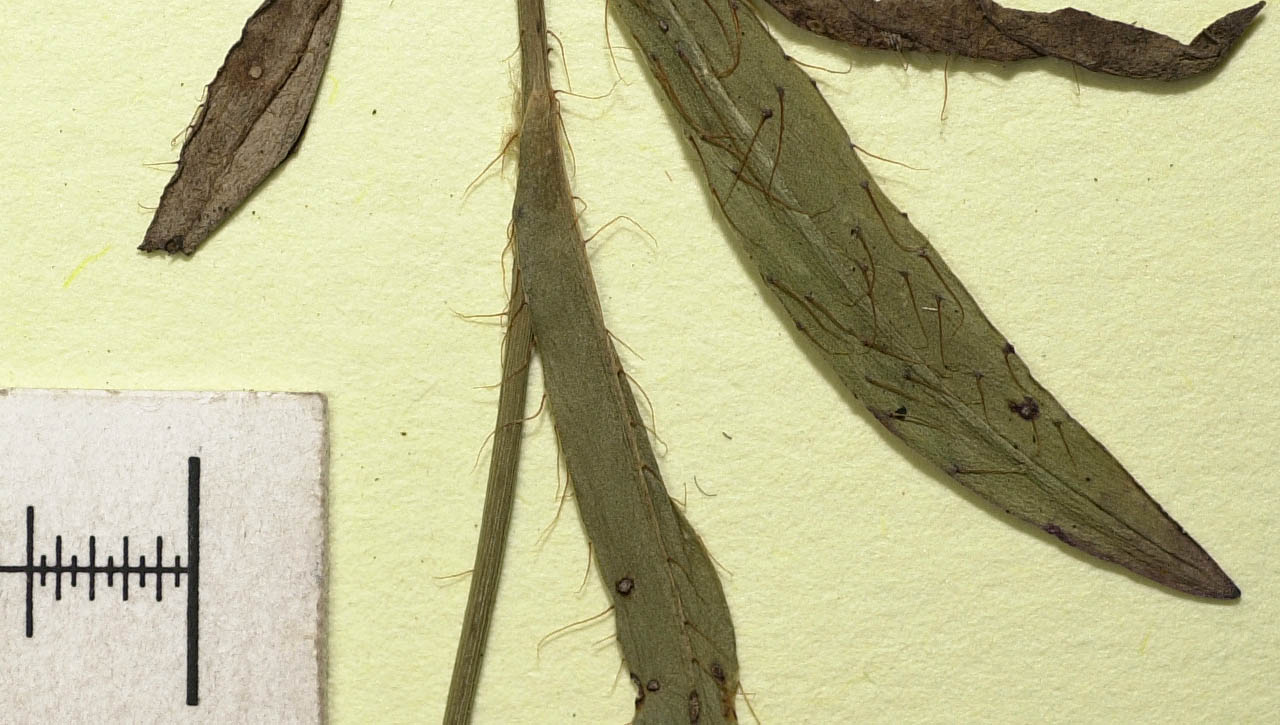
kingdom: Plantae
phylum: Tracheophyta
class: Magnoliopsida
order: Asterales
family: Asteraceae
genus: Pilosella
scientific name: Pilosella piloselloides
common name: Glaucous king-devil
